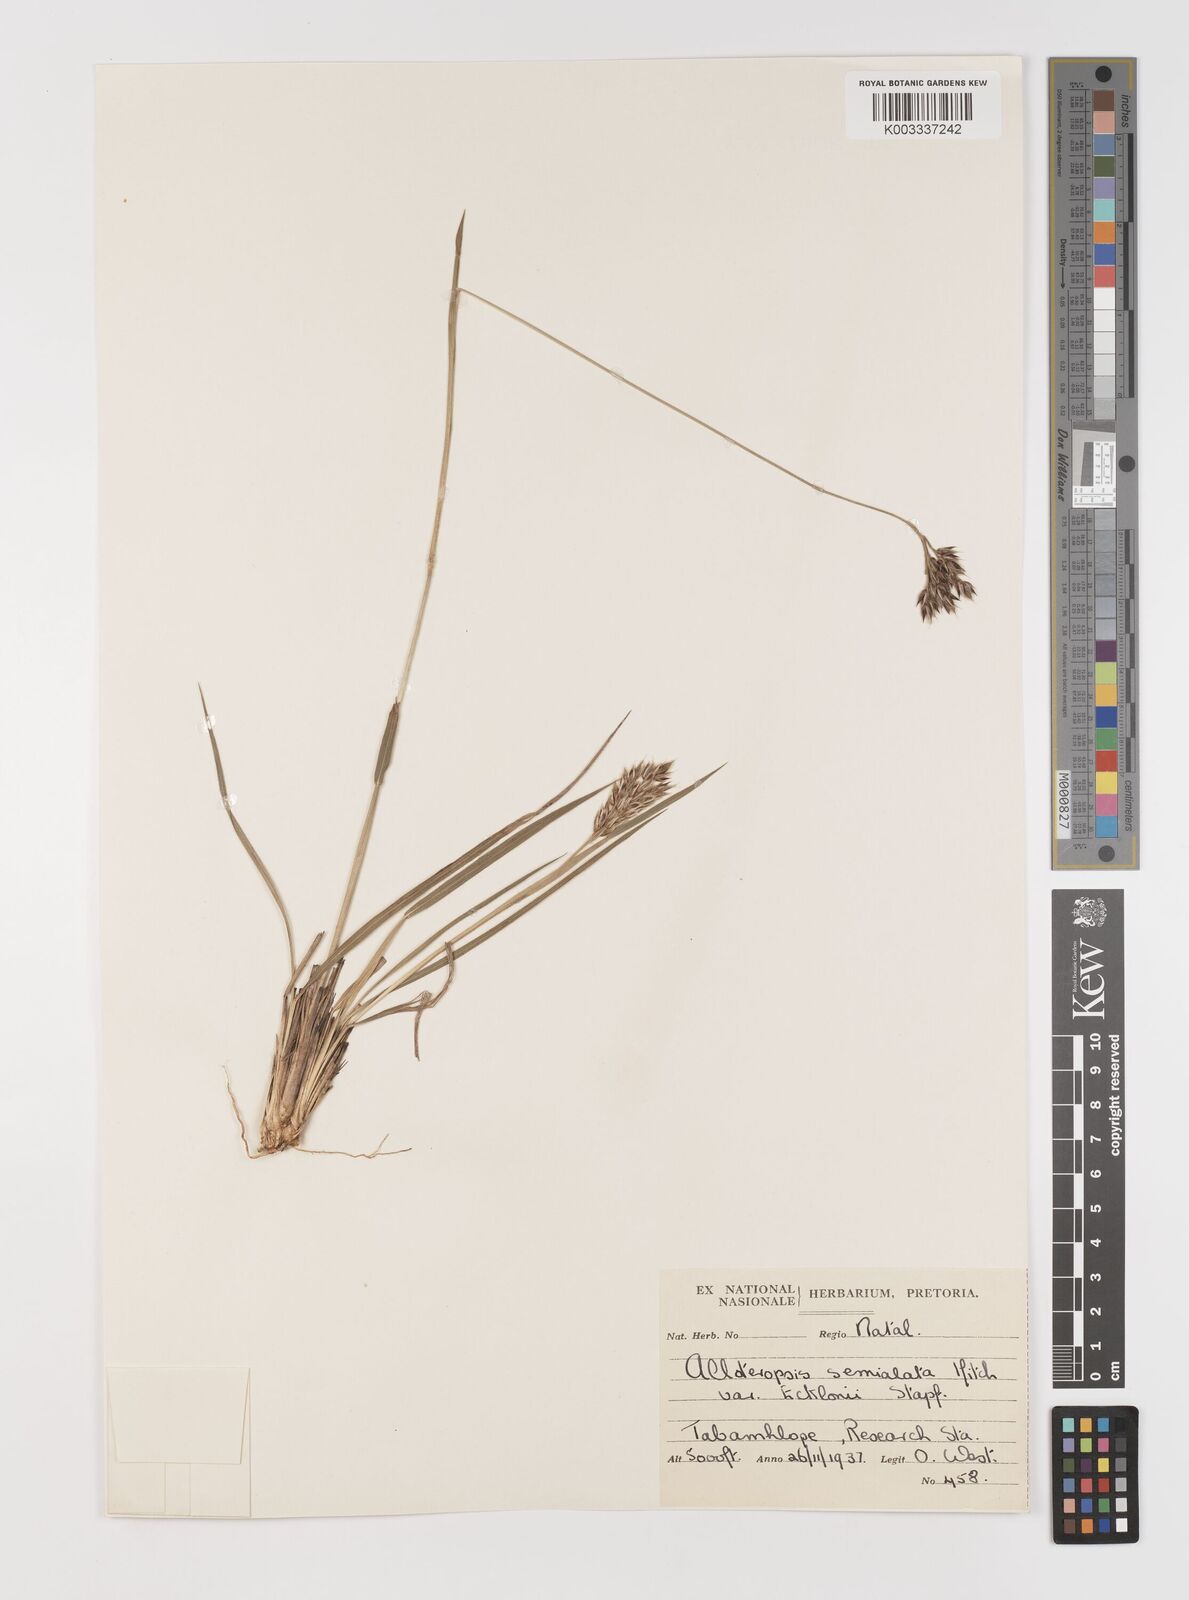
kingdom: Plantae
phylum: Tracheophyta
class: Liliopsida
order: Poales
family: Poaceae
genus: Alloteropsis
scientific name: Alloteropsis semialata
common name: Cockatoo grass
